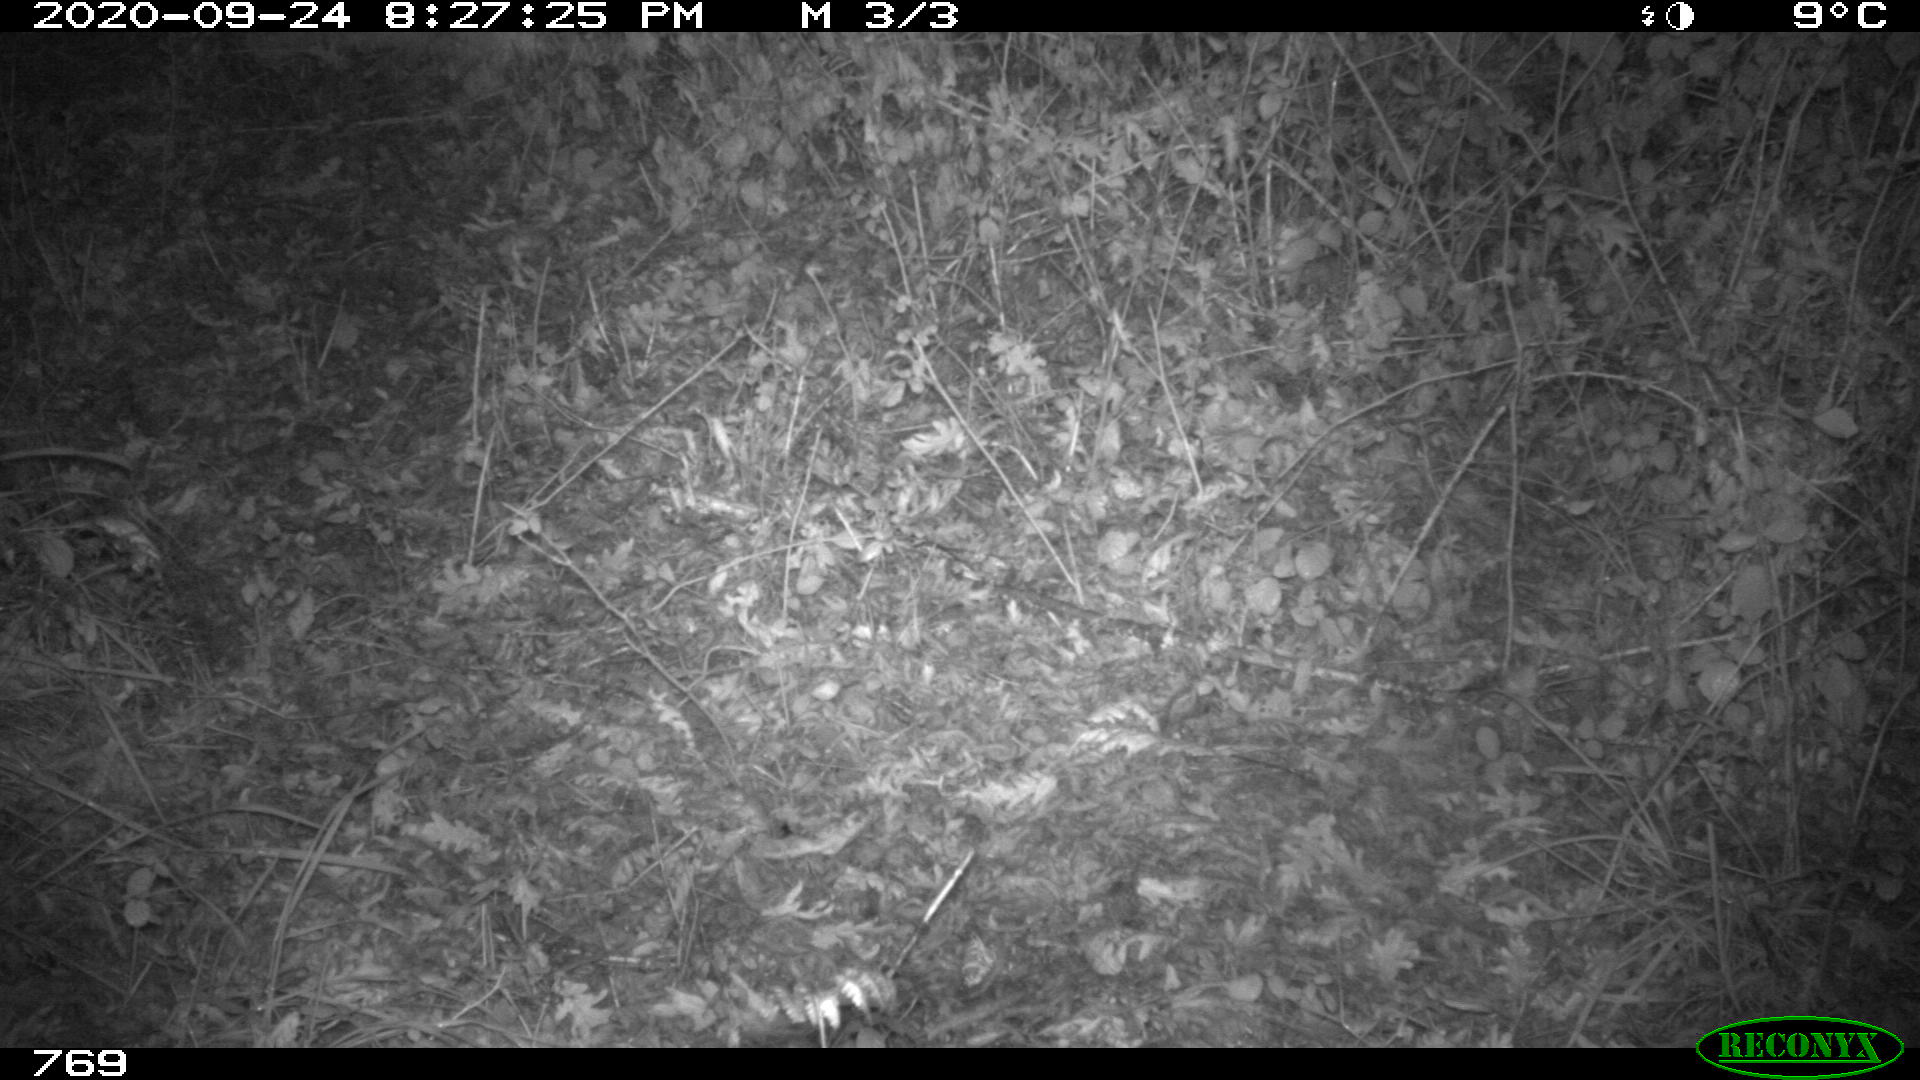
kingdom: Animalia
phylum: Chordata
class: Mammalia
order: Artiodactyla
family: Cervidae
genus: Capreolus
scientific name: Capreolus capreolus
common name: Western roe deer
